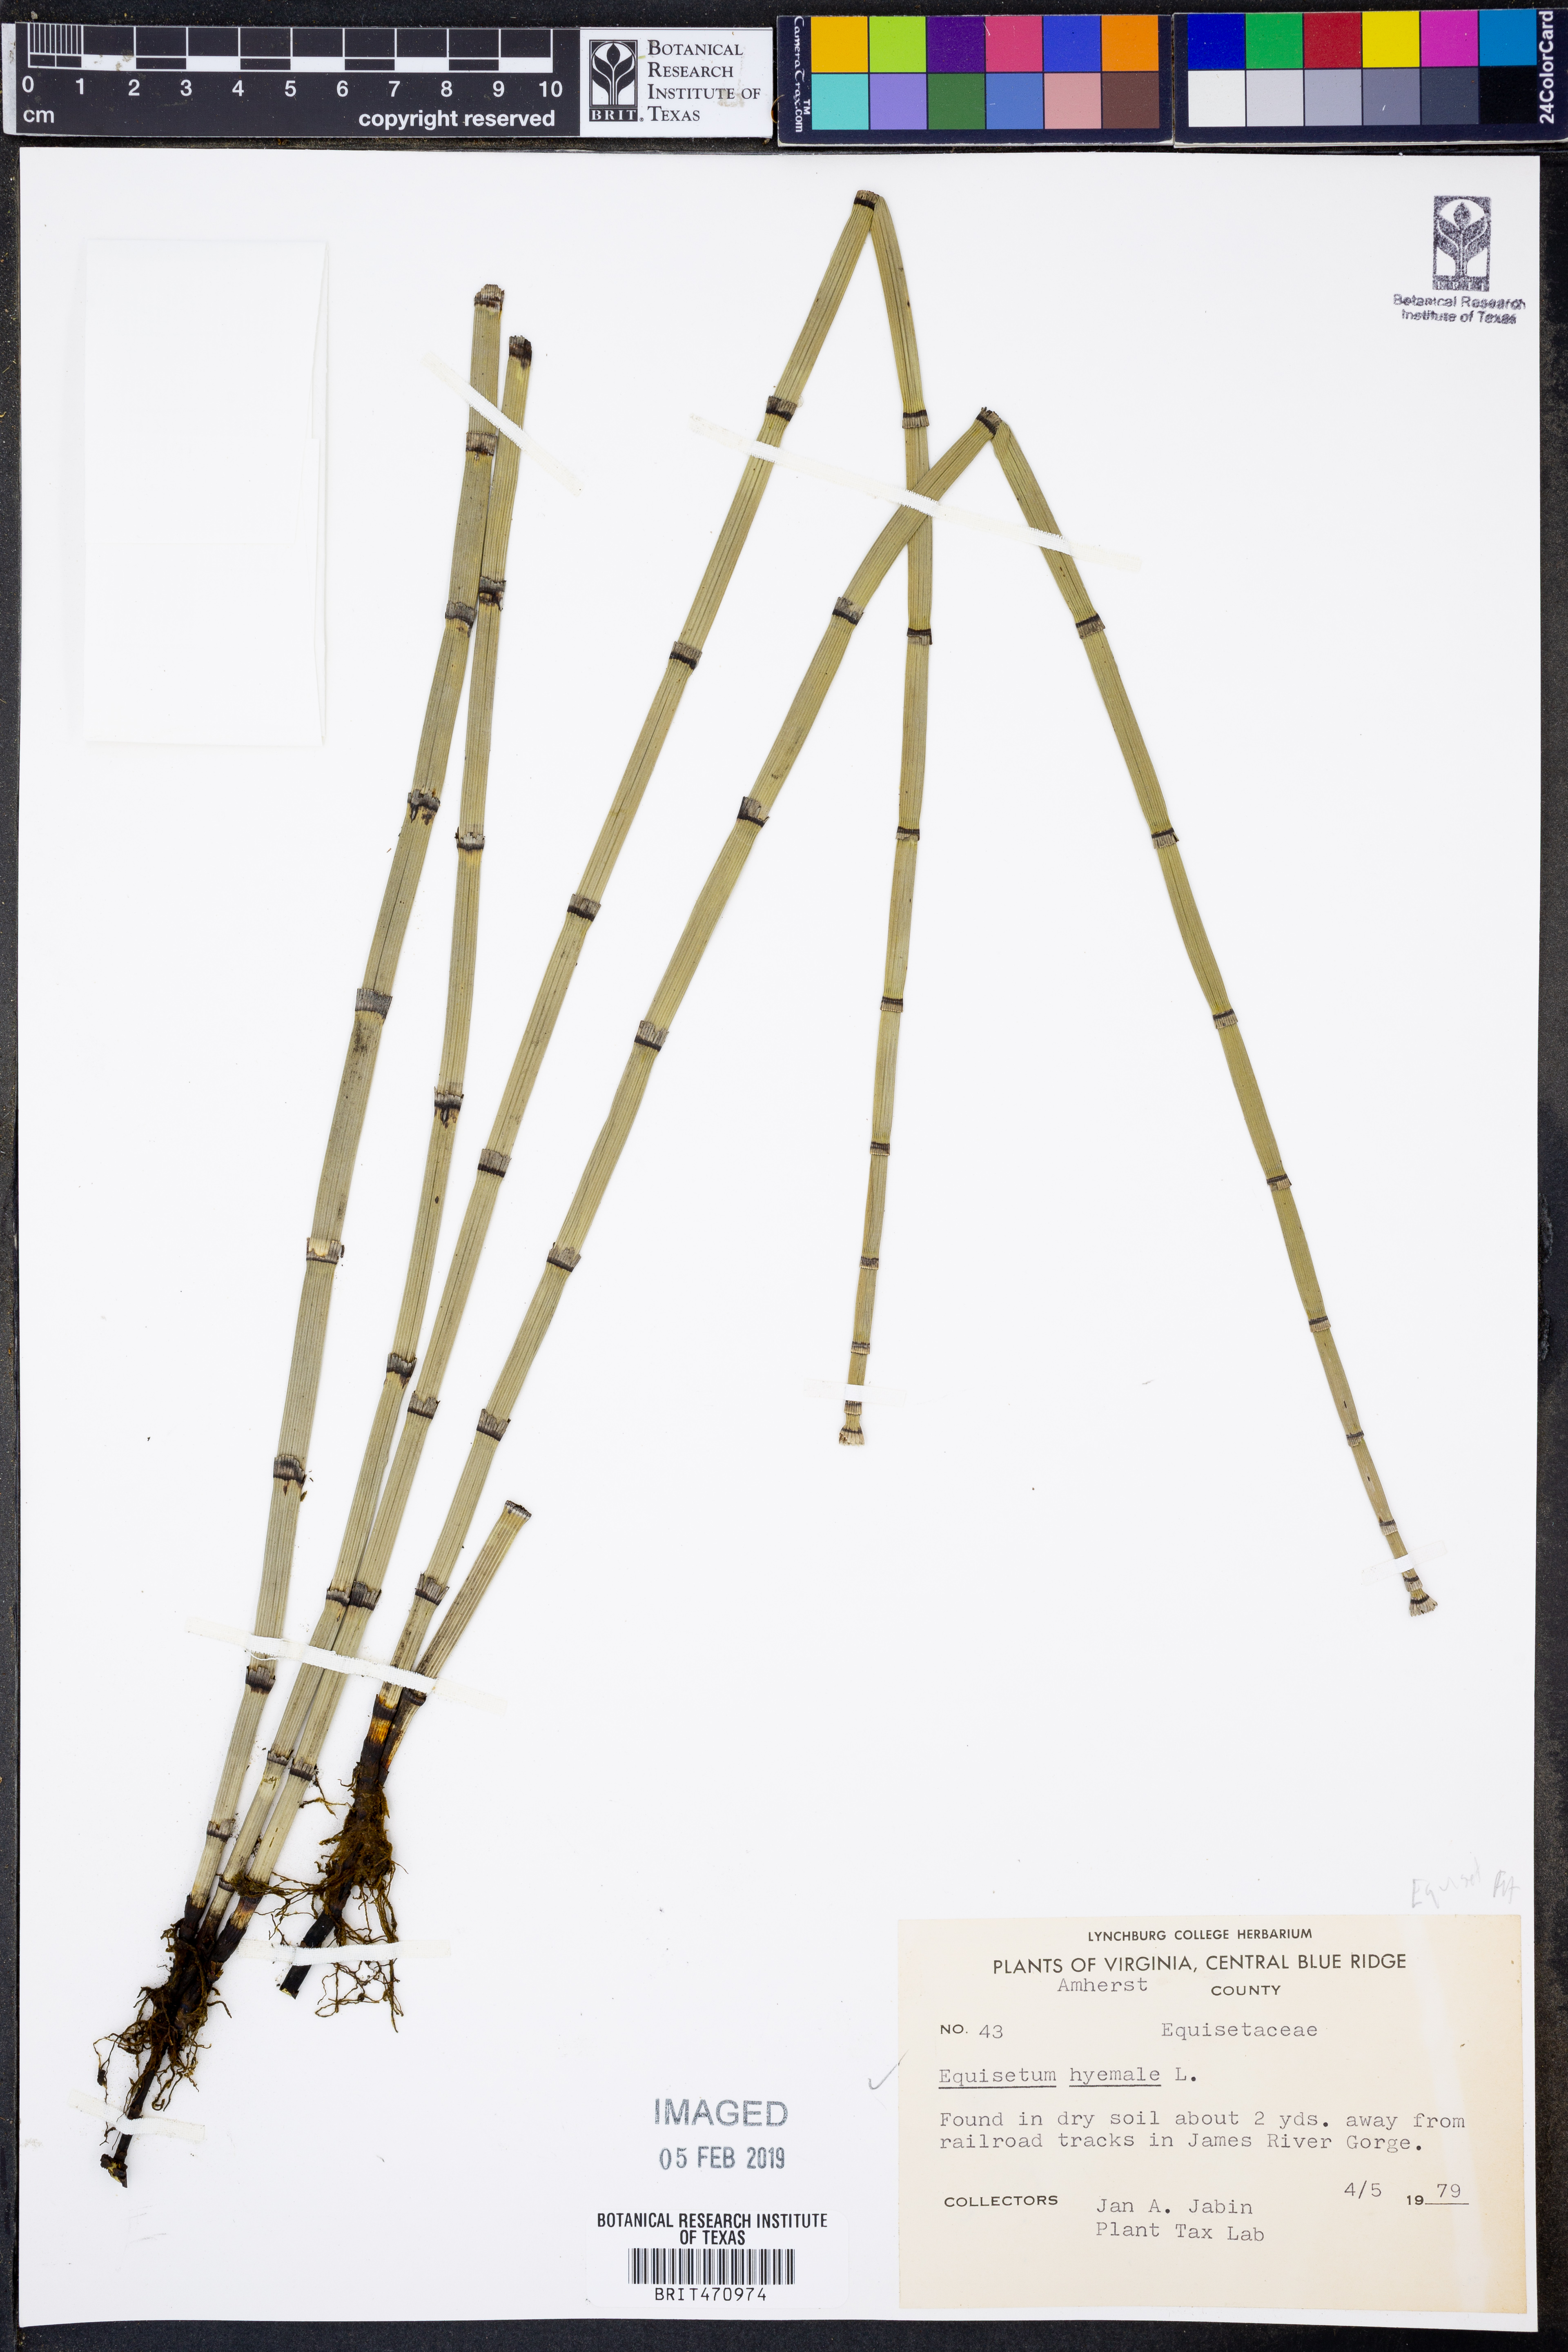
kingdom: Plantae
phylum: Tracheophyta
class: Polypodiopsida
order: Equisetales
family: Equisetaceae
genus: Equisetum
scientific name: Equisetum hyemale
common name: Rough horsetail
